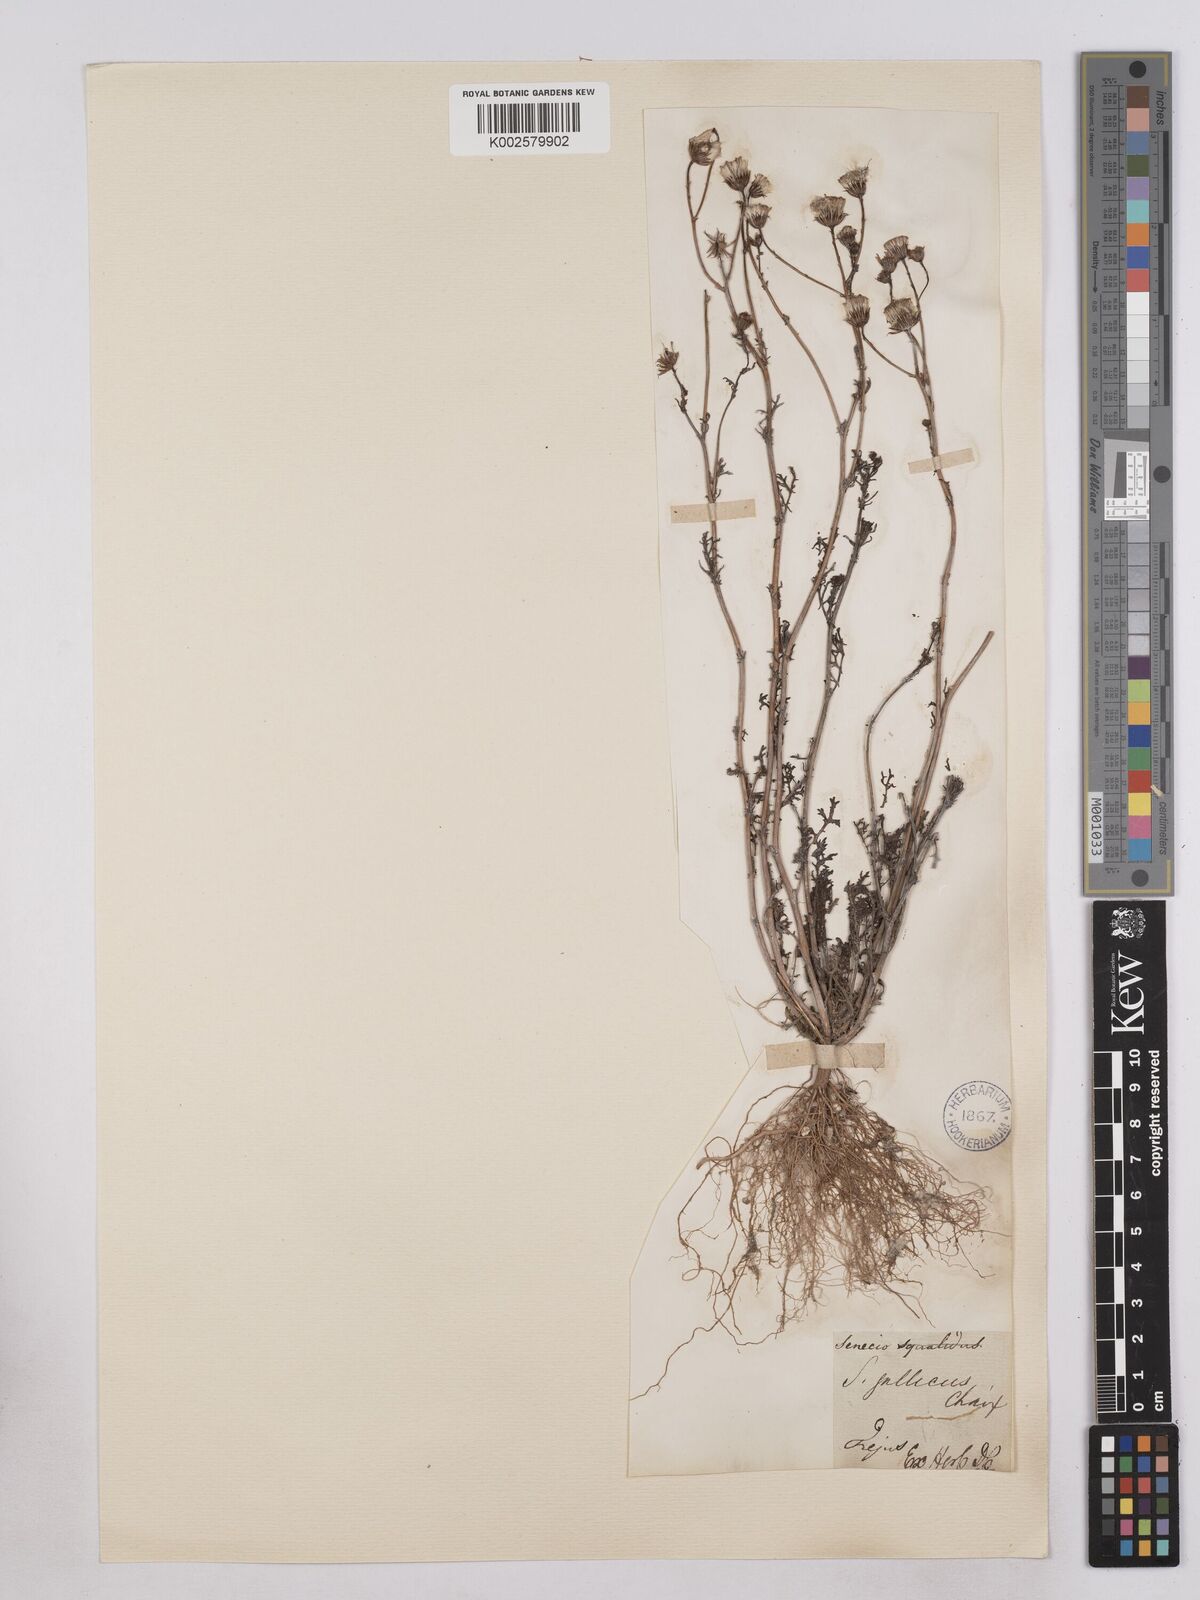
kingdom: Plantae
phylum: Tracheophyta
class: Magnoliopsida
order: Asterales
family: Asteraceae
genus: Senecio
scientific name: Senecio gallicus
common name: French groundsel
